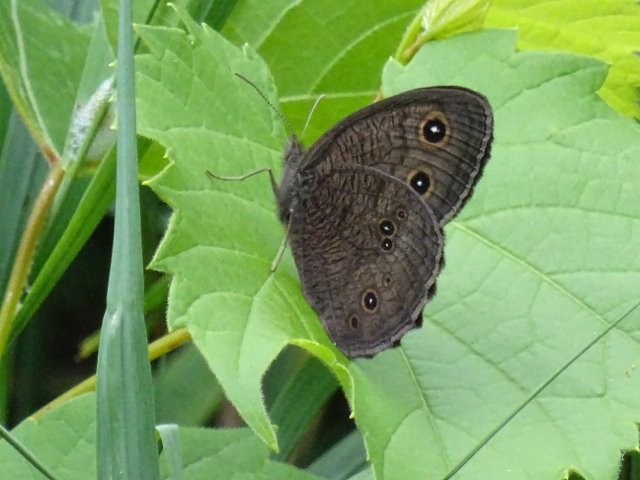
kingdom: Animalia
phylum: Arthropoda
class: Insecta
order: Lepidoptera
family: Nymphalidae
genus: Cercyonis
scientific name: Cercyonis pegala
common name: Common Wood-Nymph
